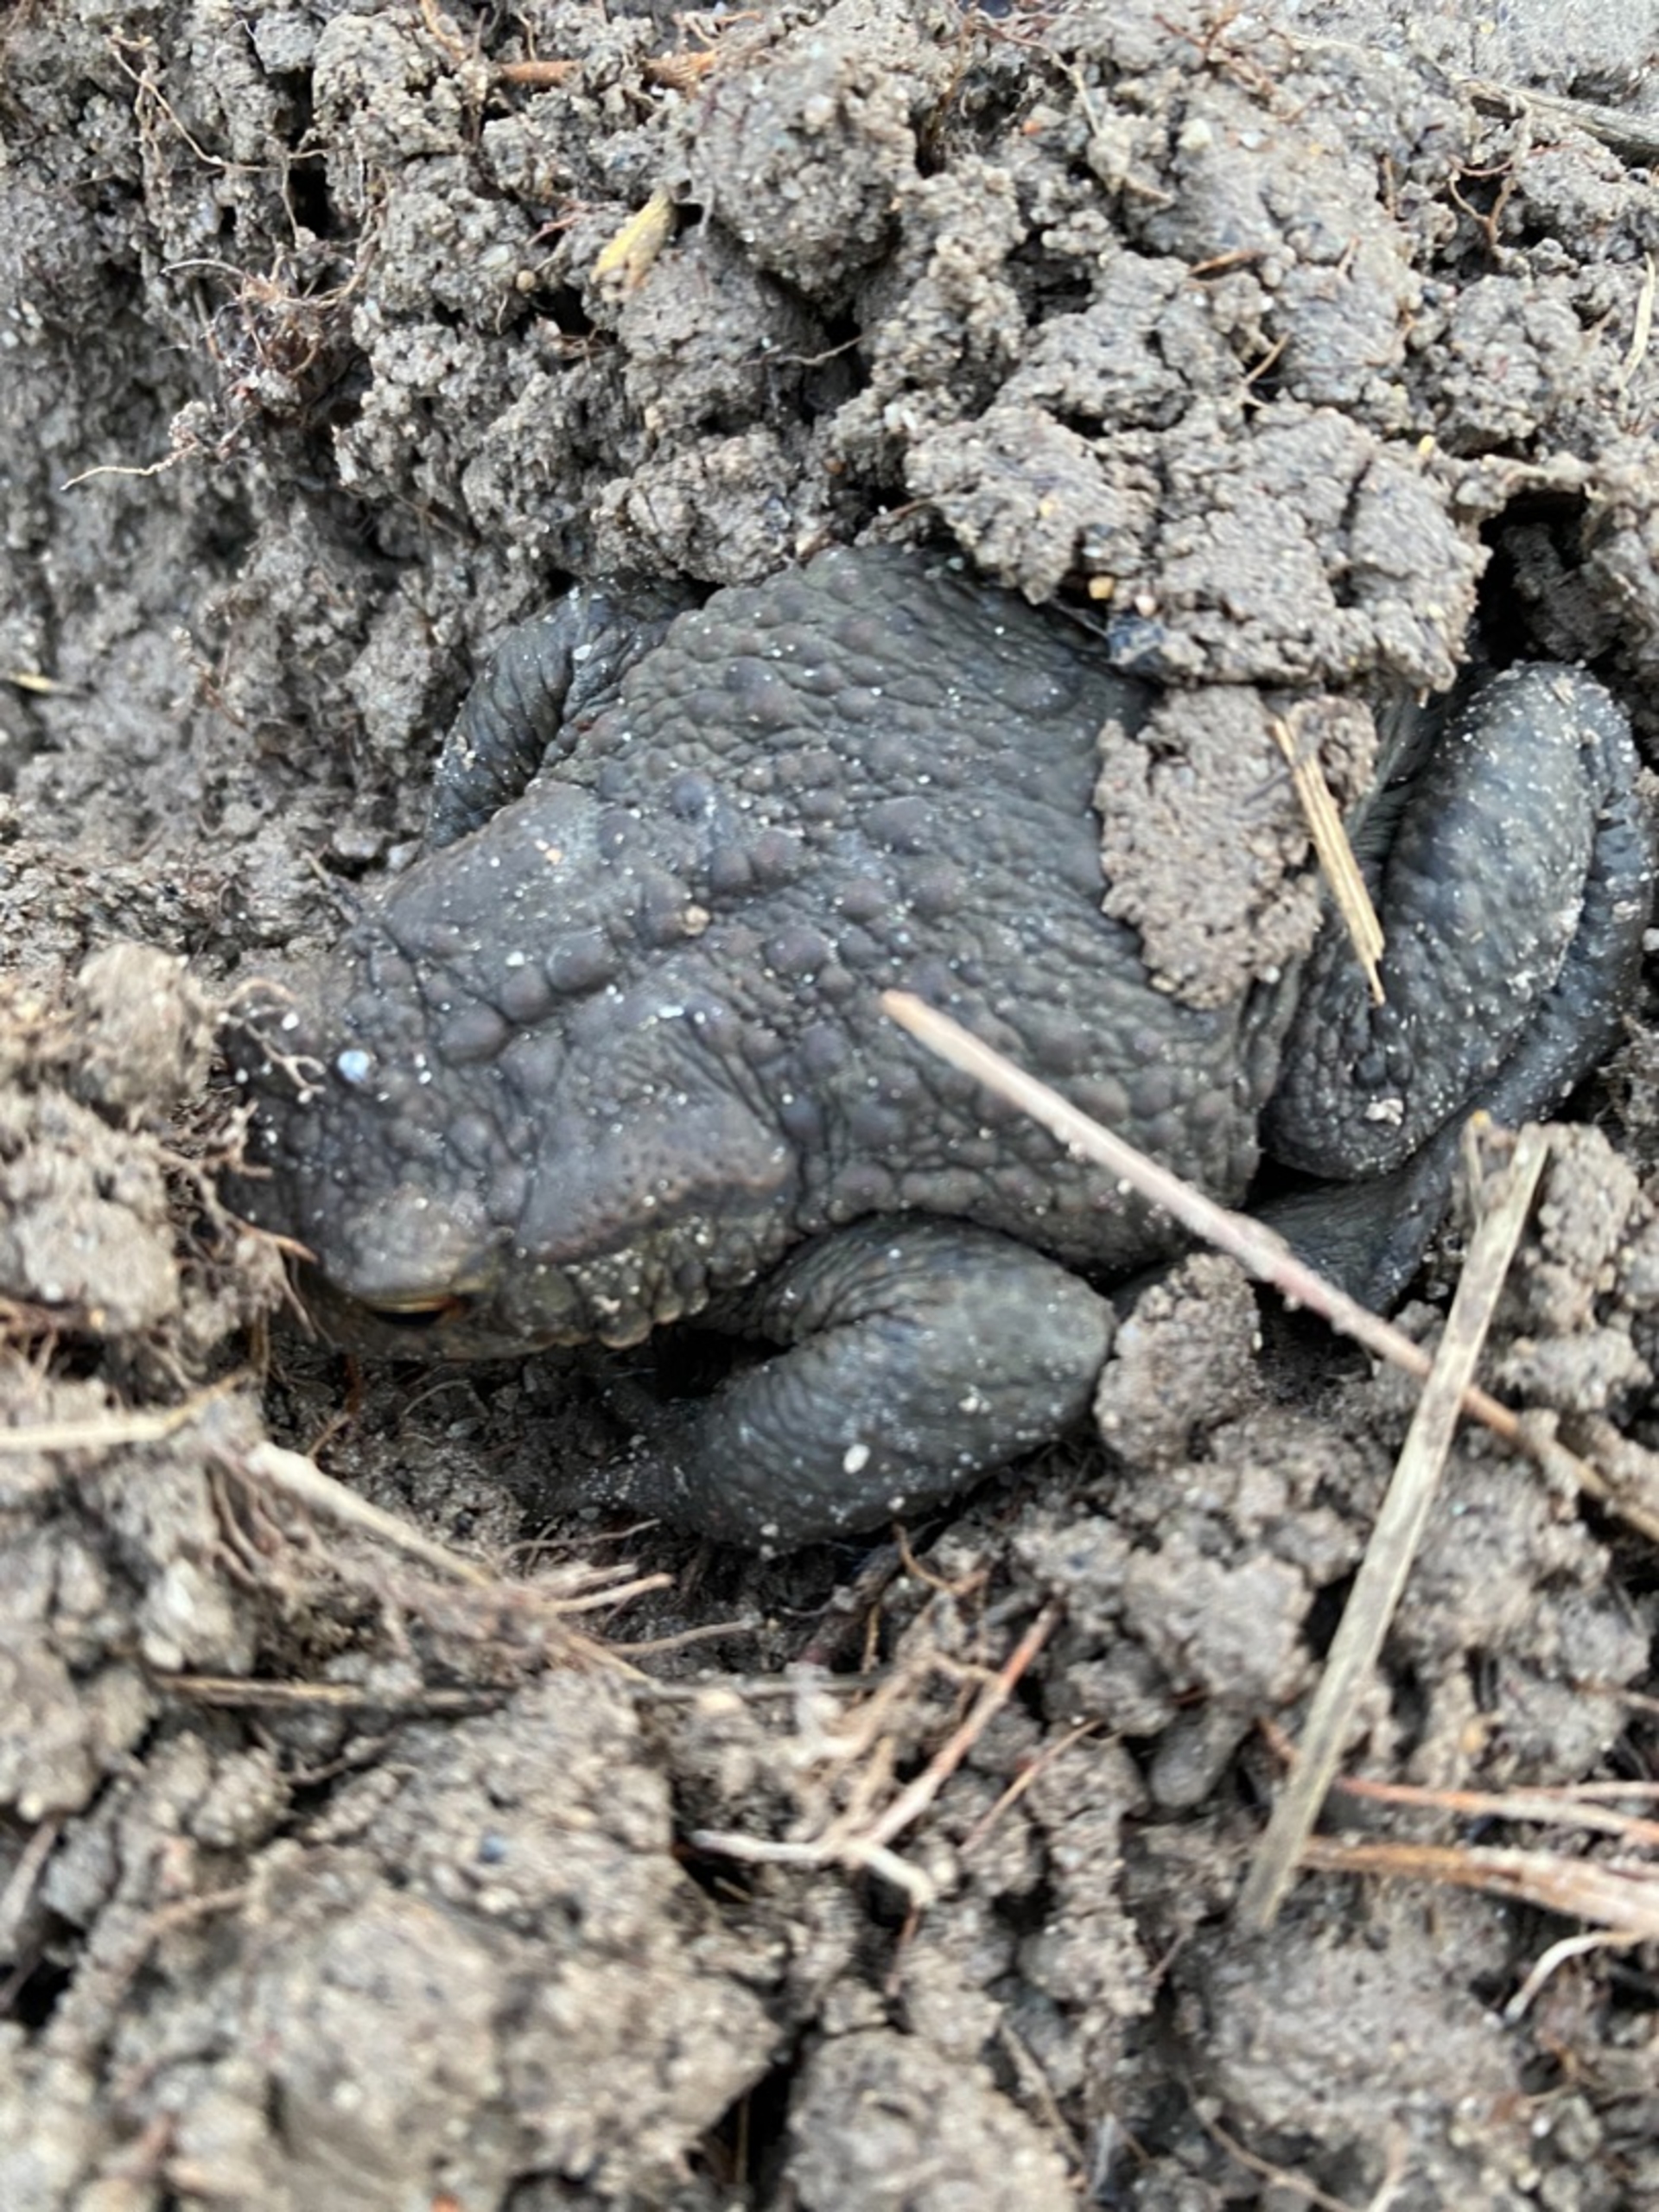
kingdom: Animalia
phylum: Chordata
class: Amphibia
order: Anura
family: Bufonidae
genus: Bufo
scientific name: Bufo bufo
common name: Skrubtudse
